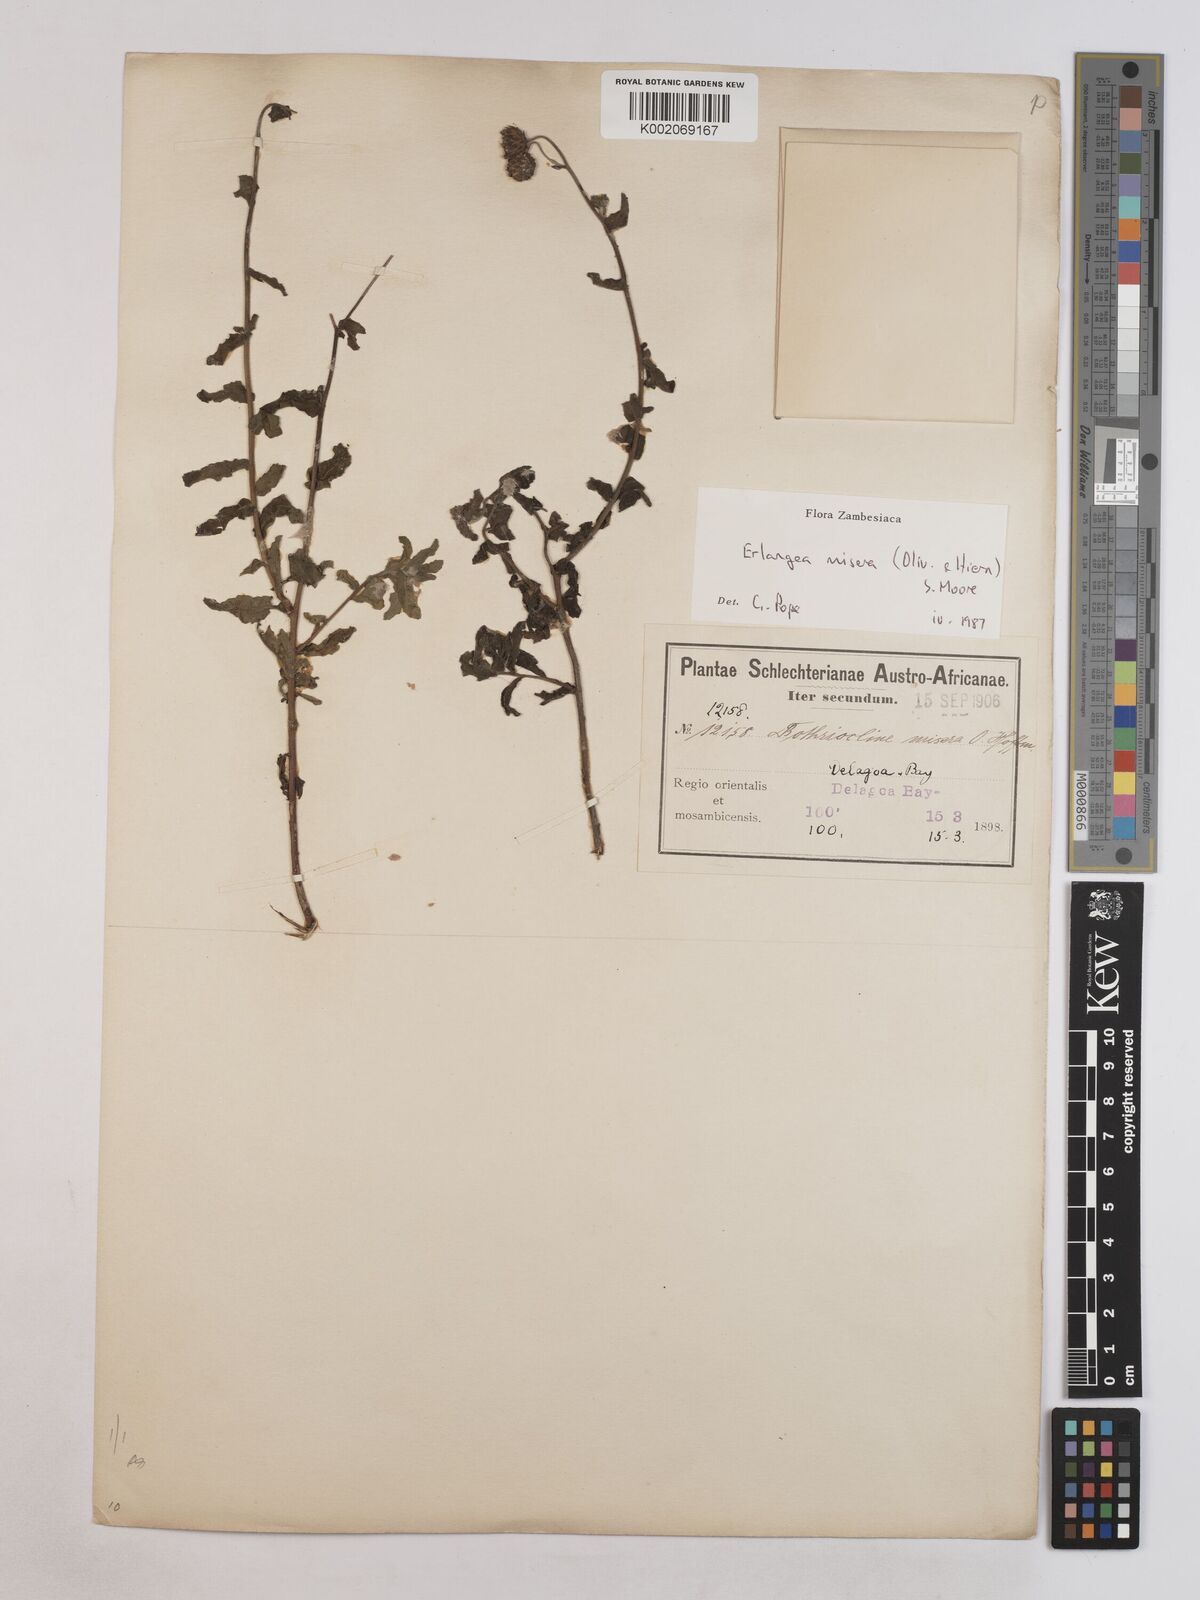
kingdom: Plantae
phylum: Tracheophyta
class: Magnoliopsida
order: Asterales
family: Asteraceae
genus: Erlangea
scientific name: Erlangea misera
